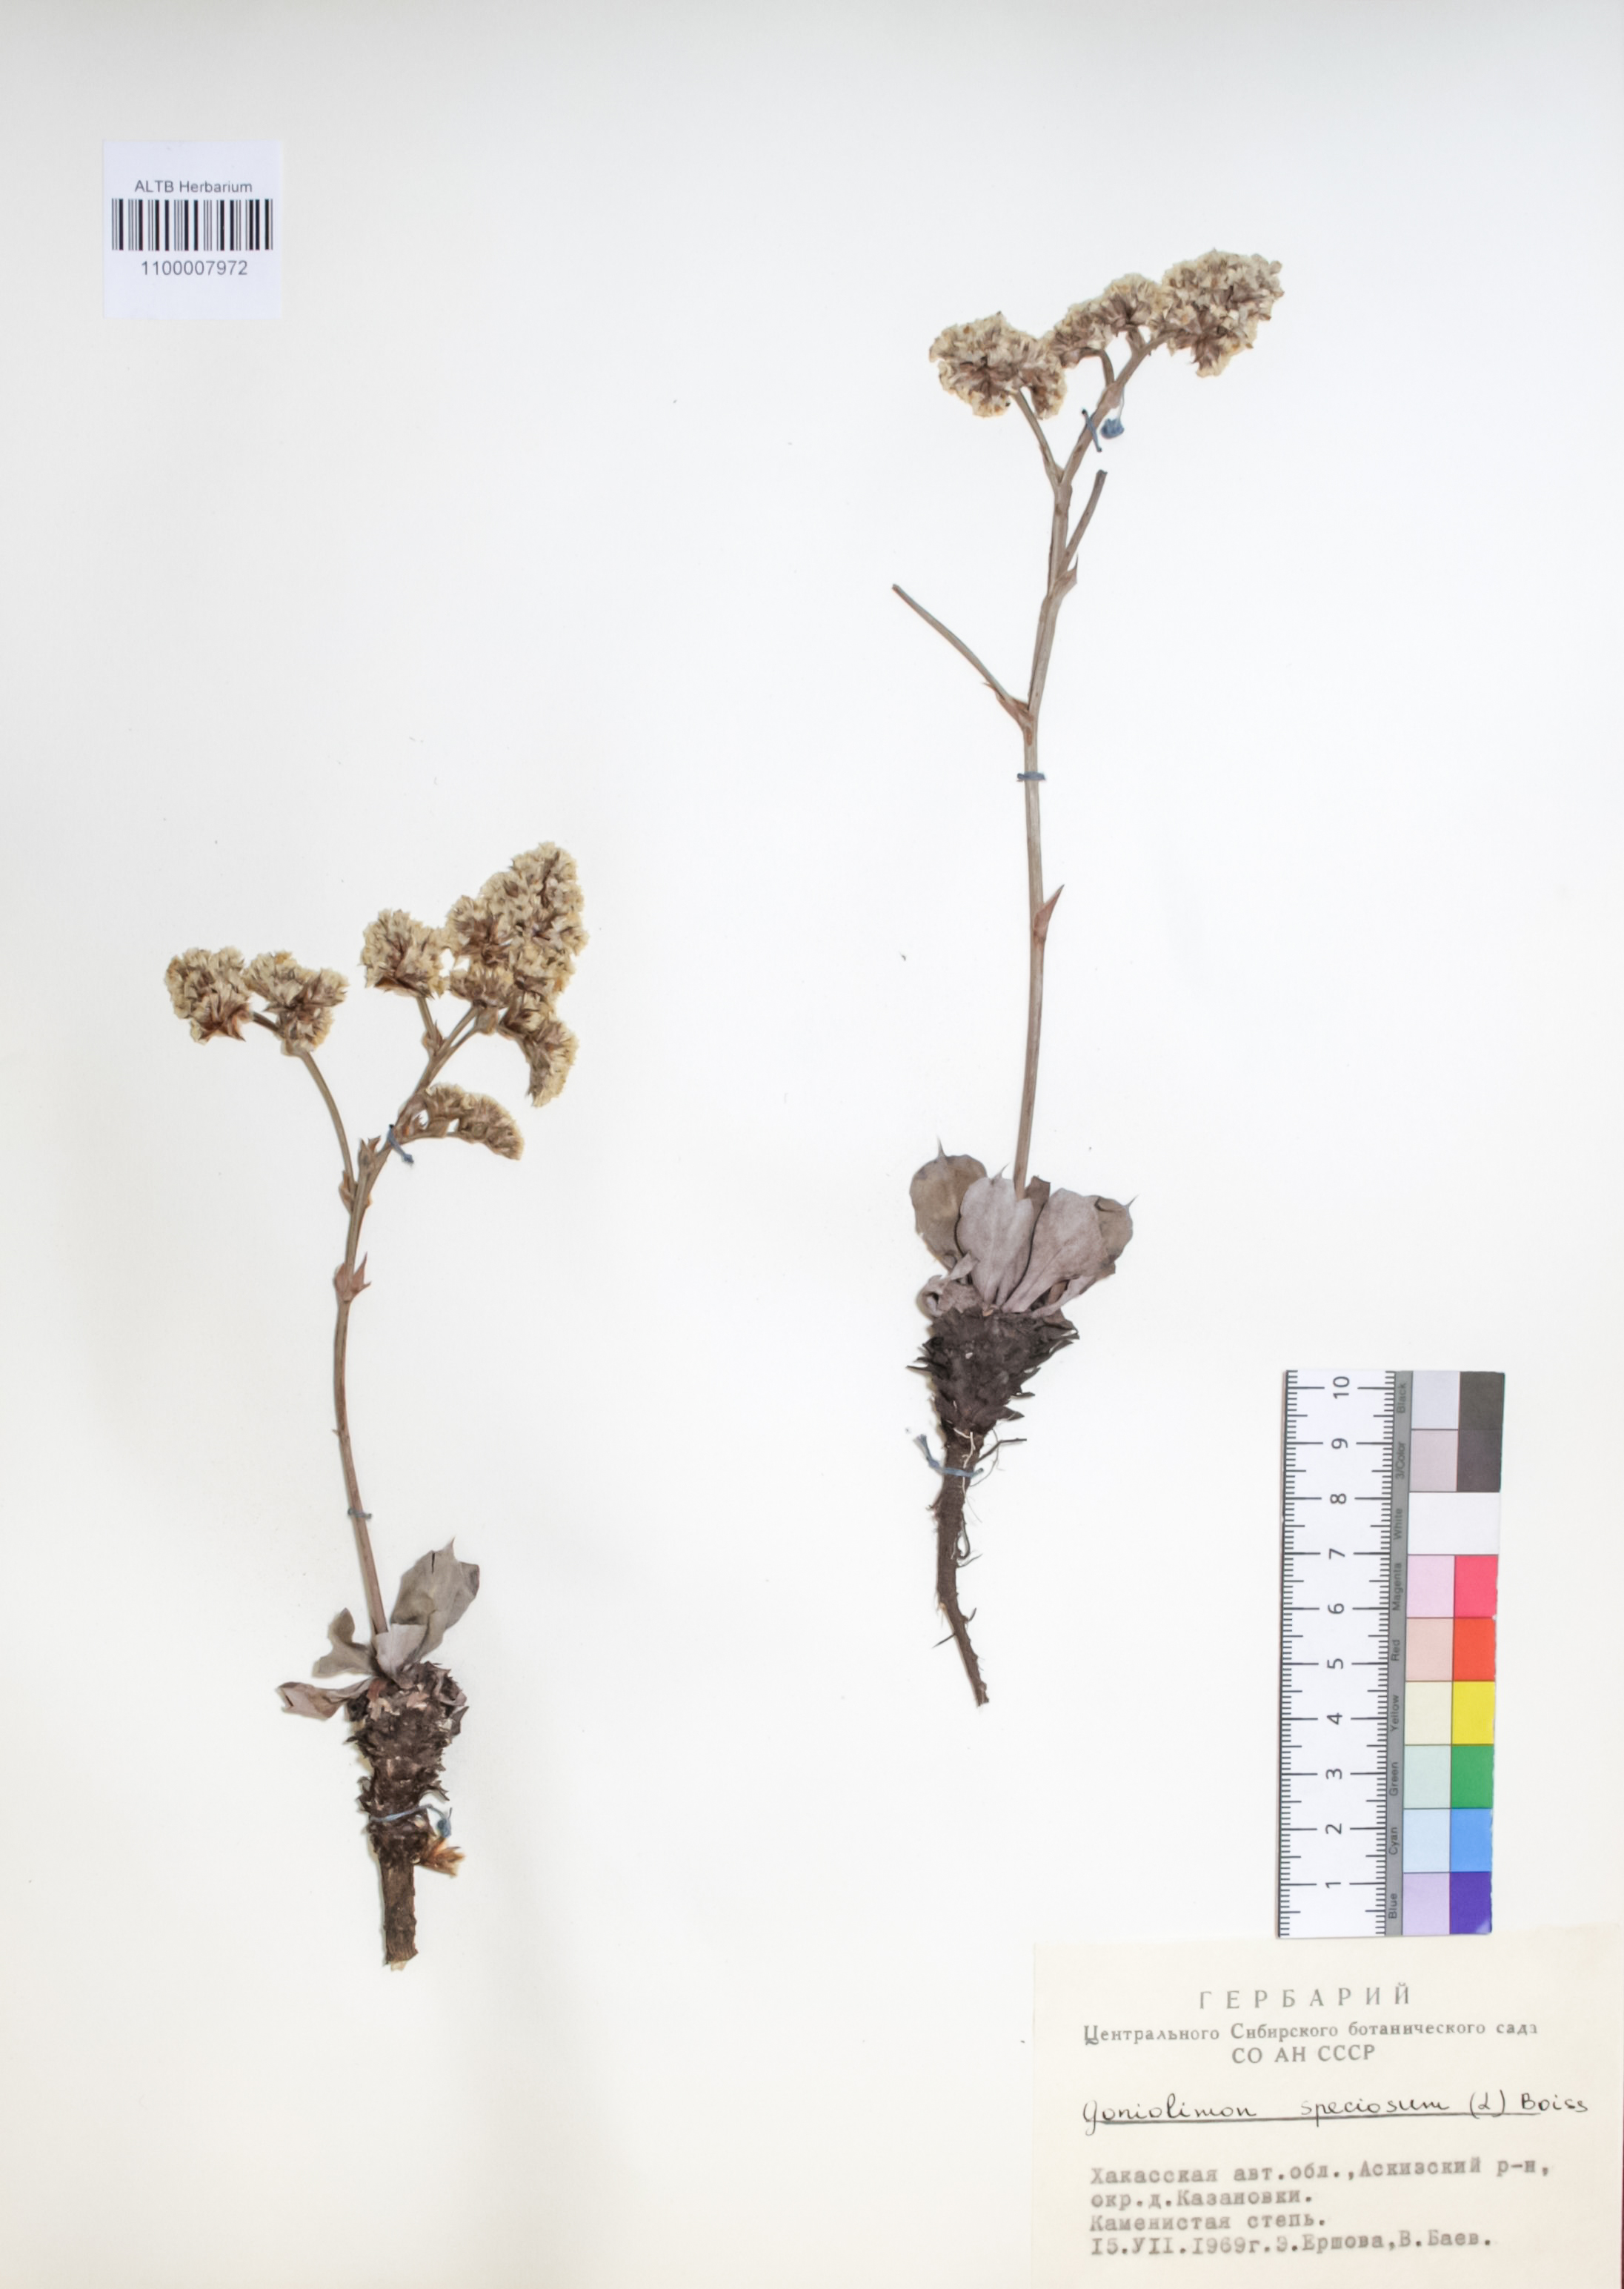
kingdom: Plantae
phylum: Tracheophyta
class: Magnoliopsida
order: Caryophyllales
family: Plumbaginaceae
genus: Goniolimon
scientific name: Goniolimon speciosum
